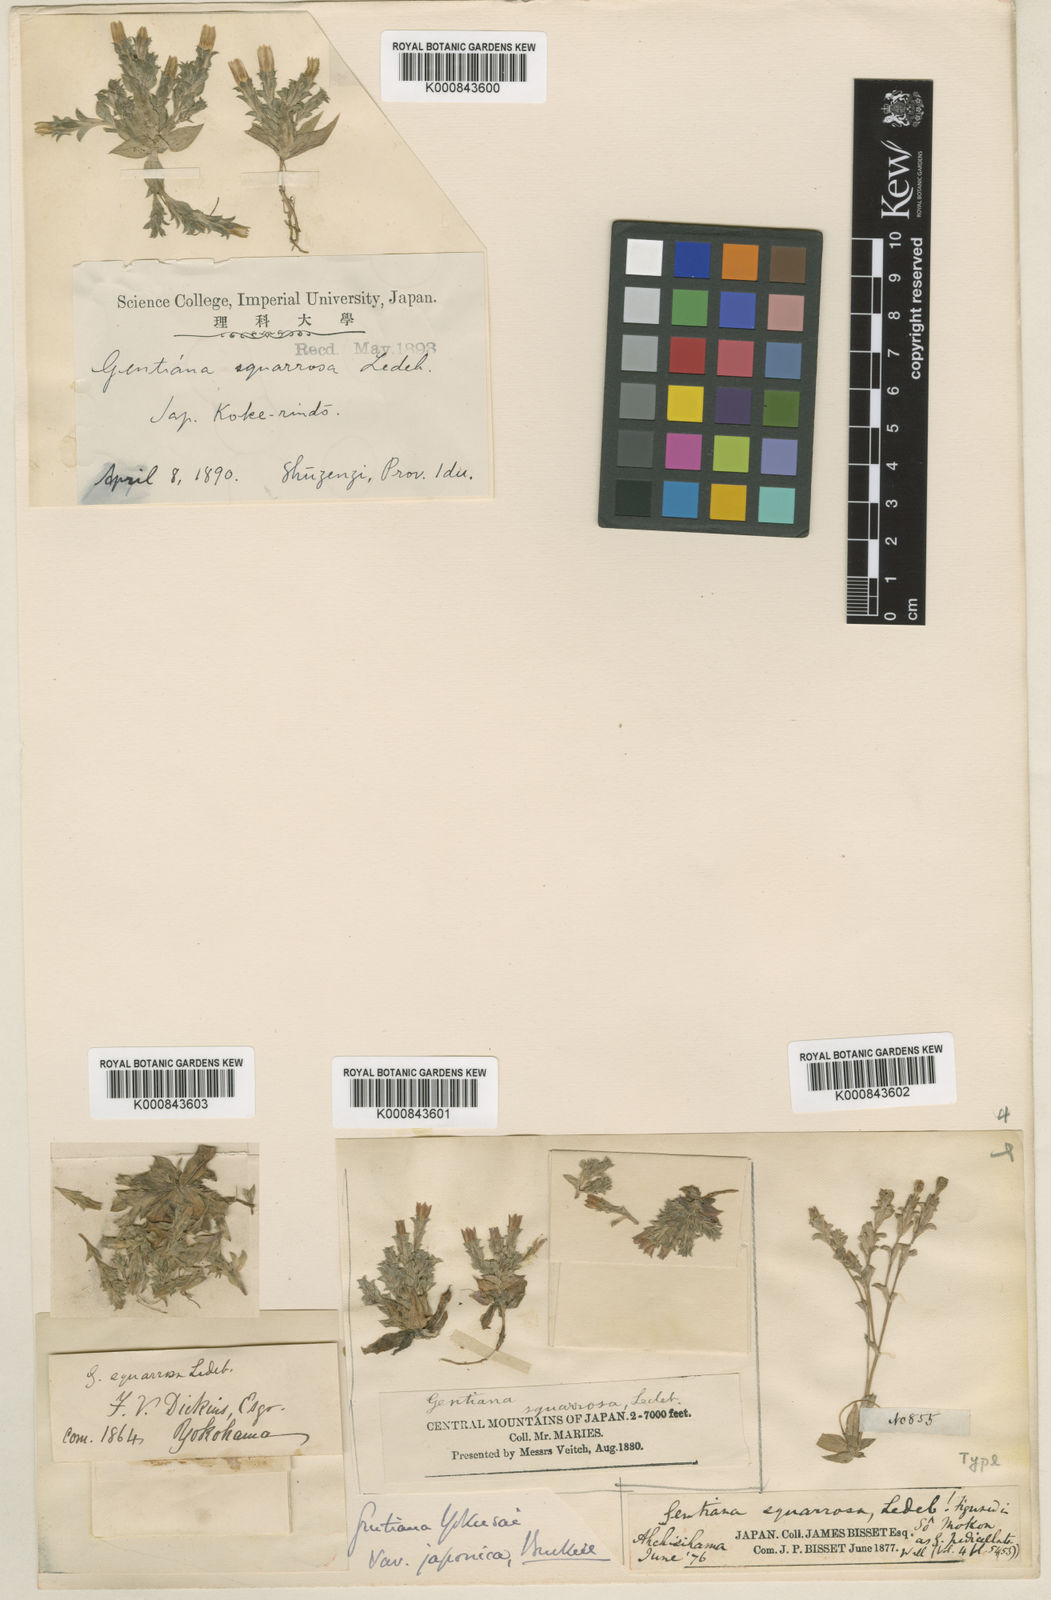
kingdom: Plantae
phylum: Tracheophyta
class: Magnoliopsida
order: Gentianales
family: Gentianaceae
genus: Gentiana
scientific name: Gentiana yokusai
